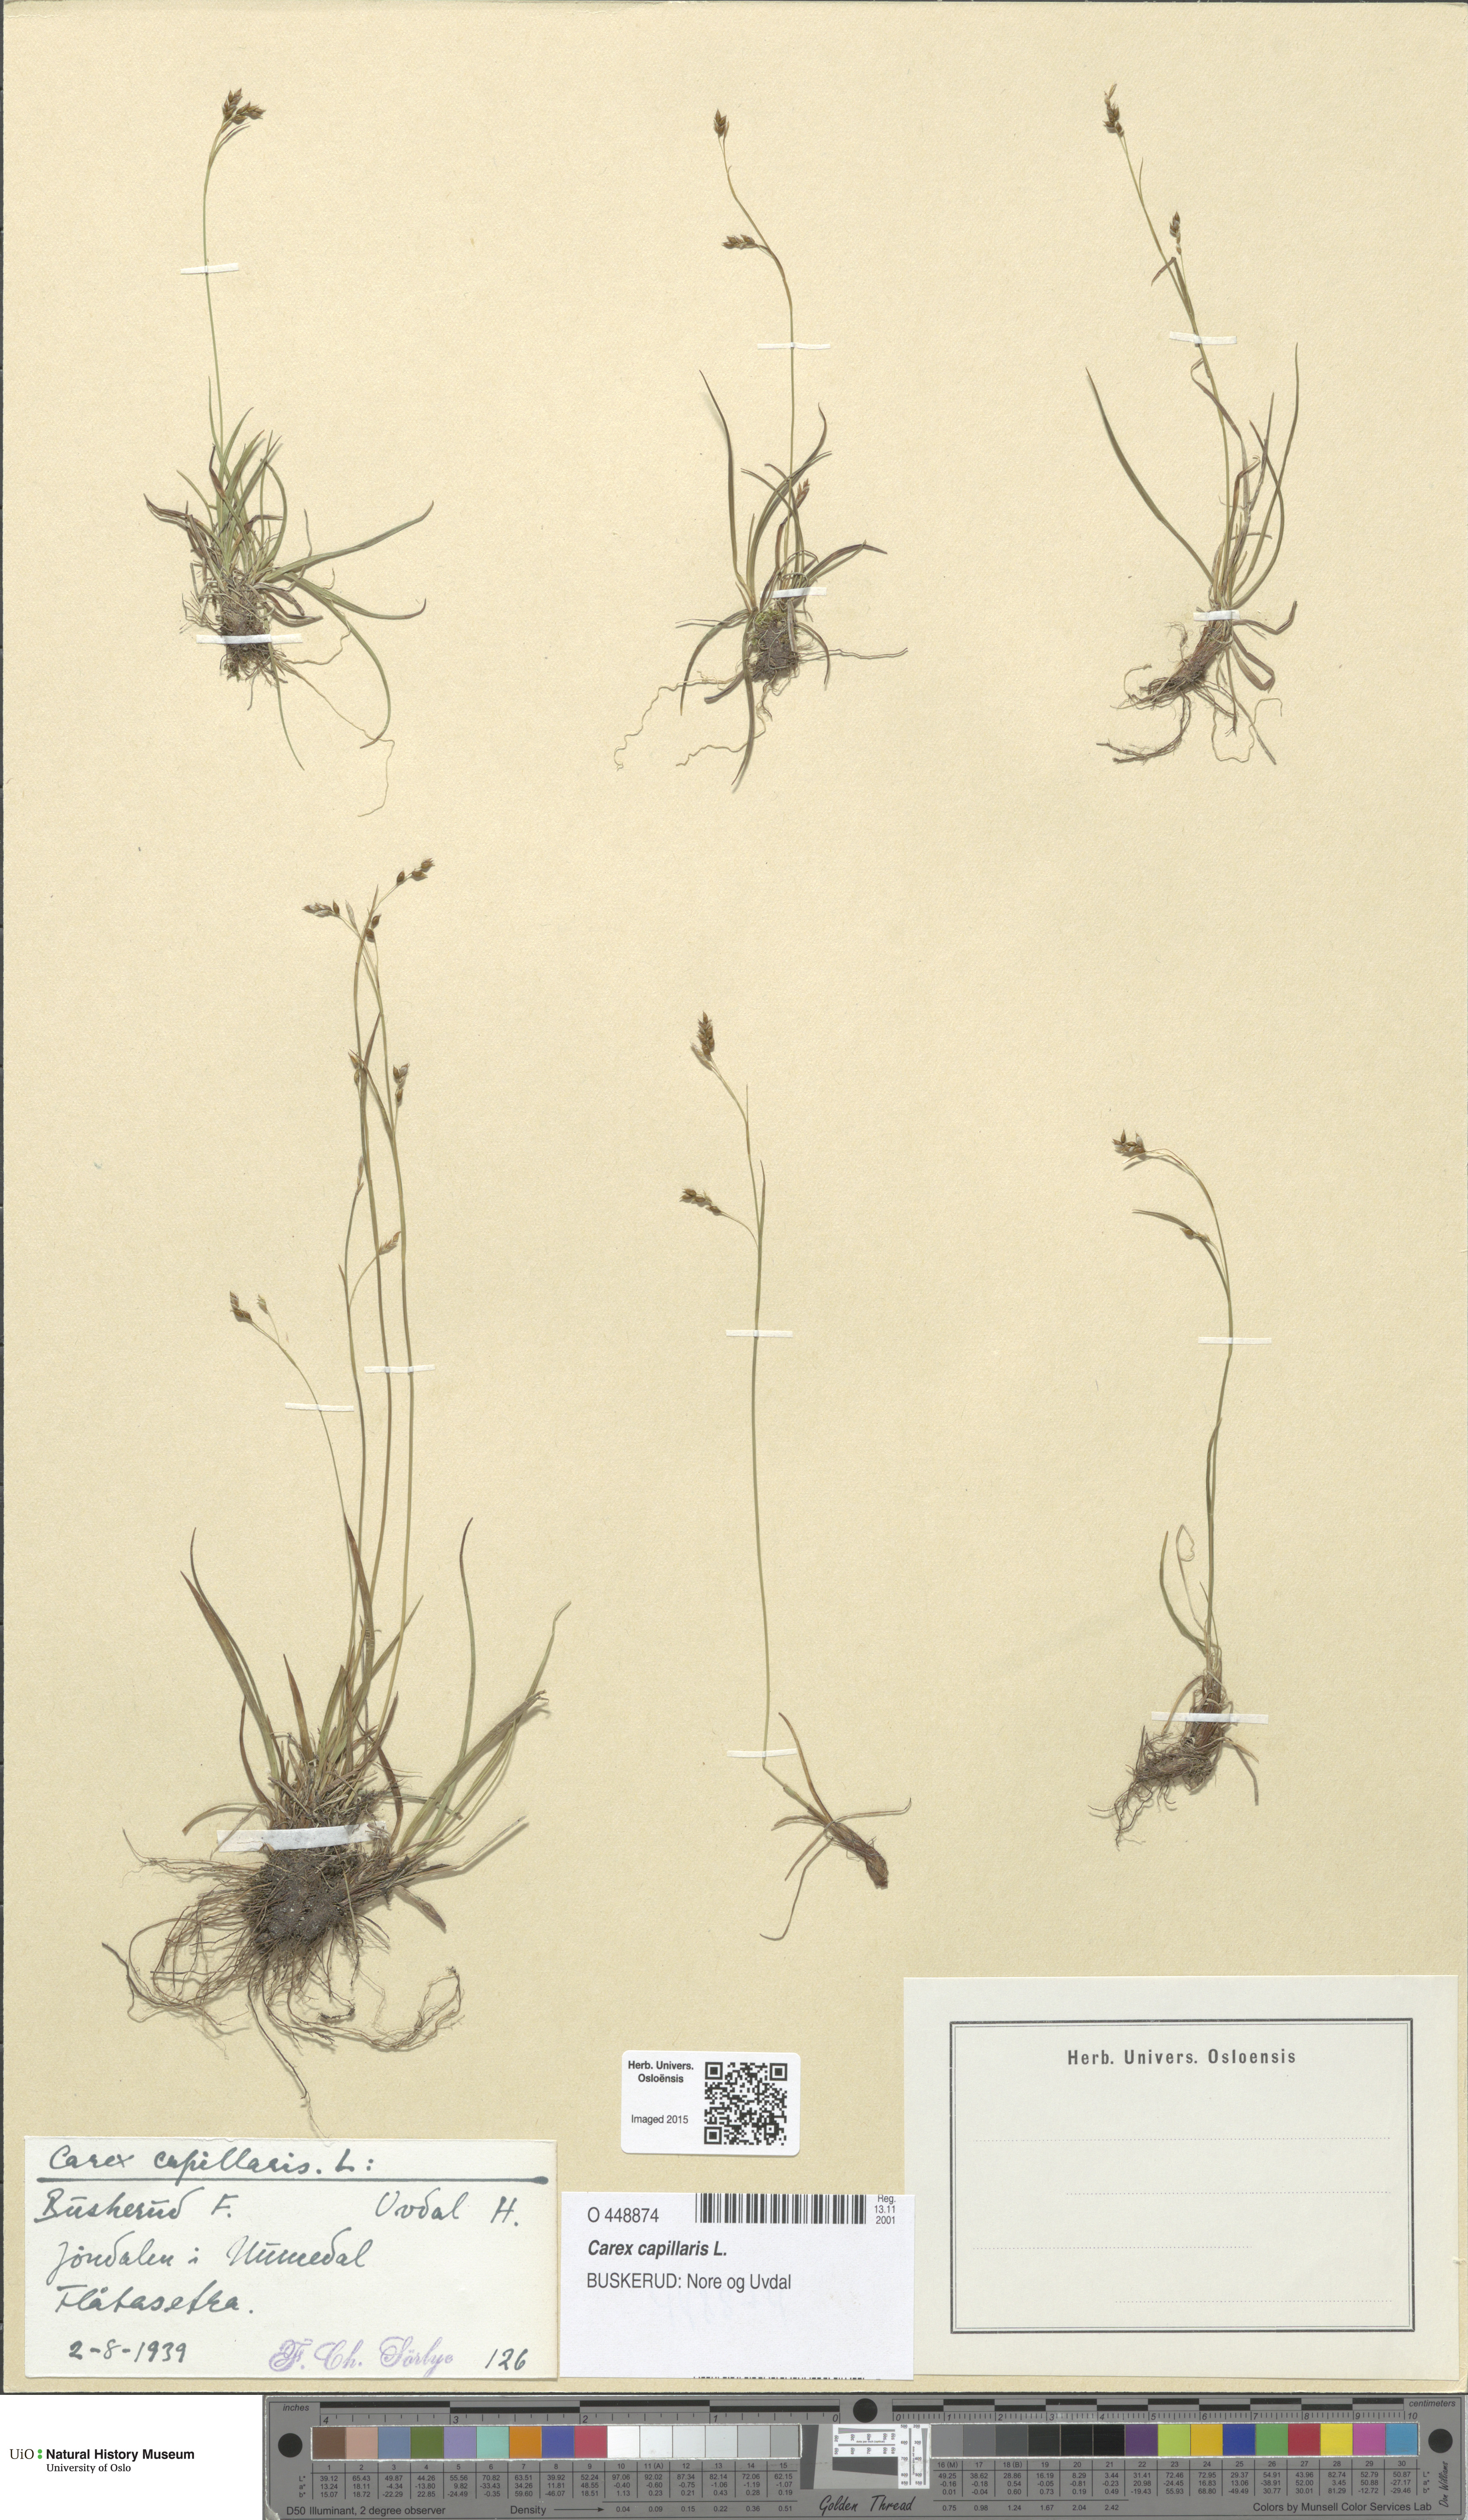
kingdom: Plantae
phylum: Tracheophyta
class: Liliopsida
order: Poales
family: Cyperaceae
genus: Carex
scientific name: Carex capillaris
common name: Hair sedge
